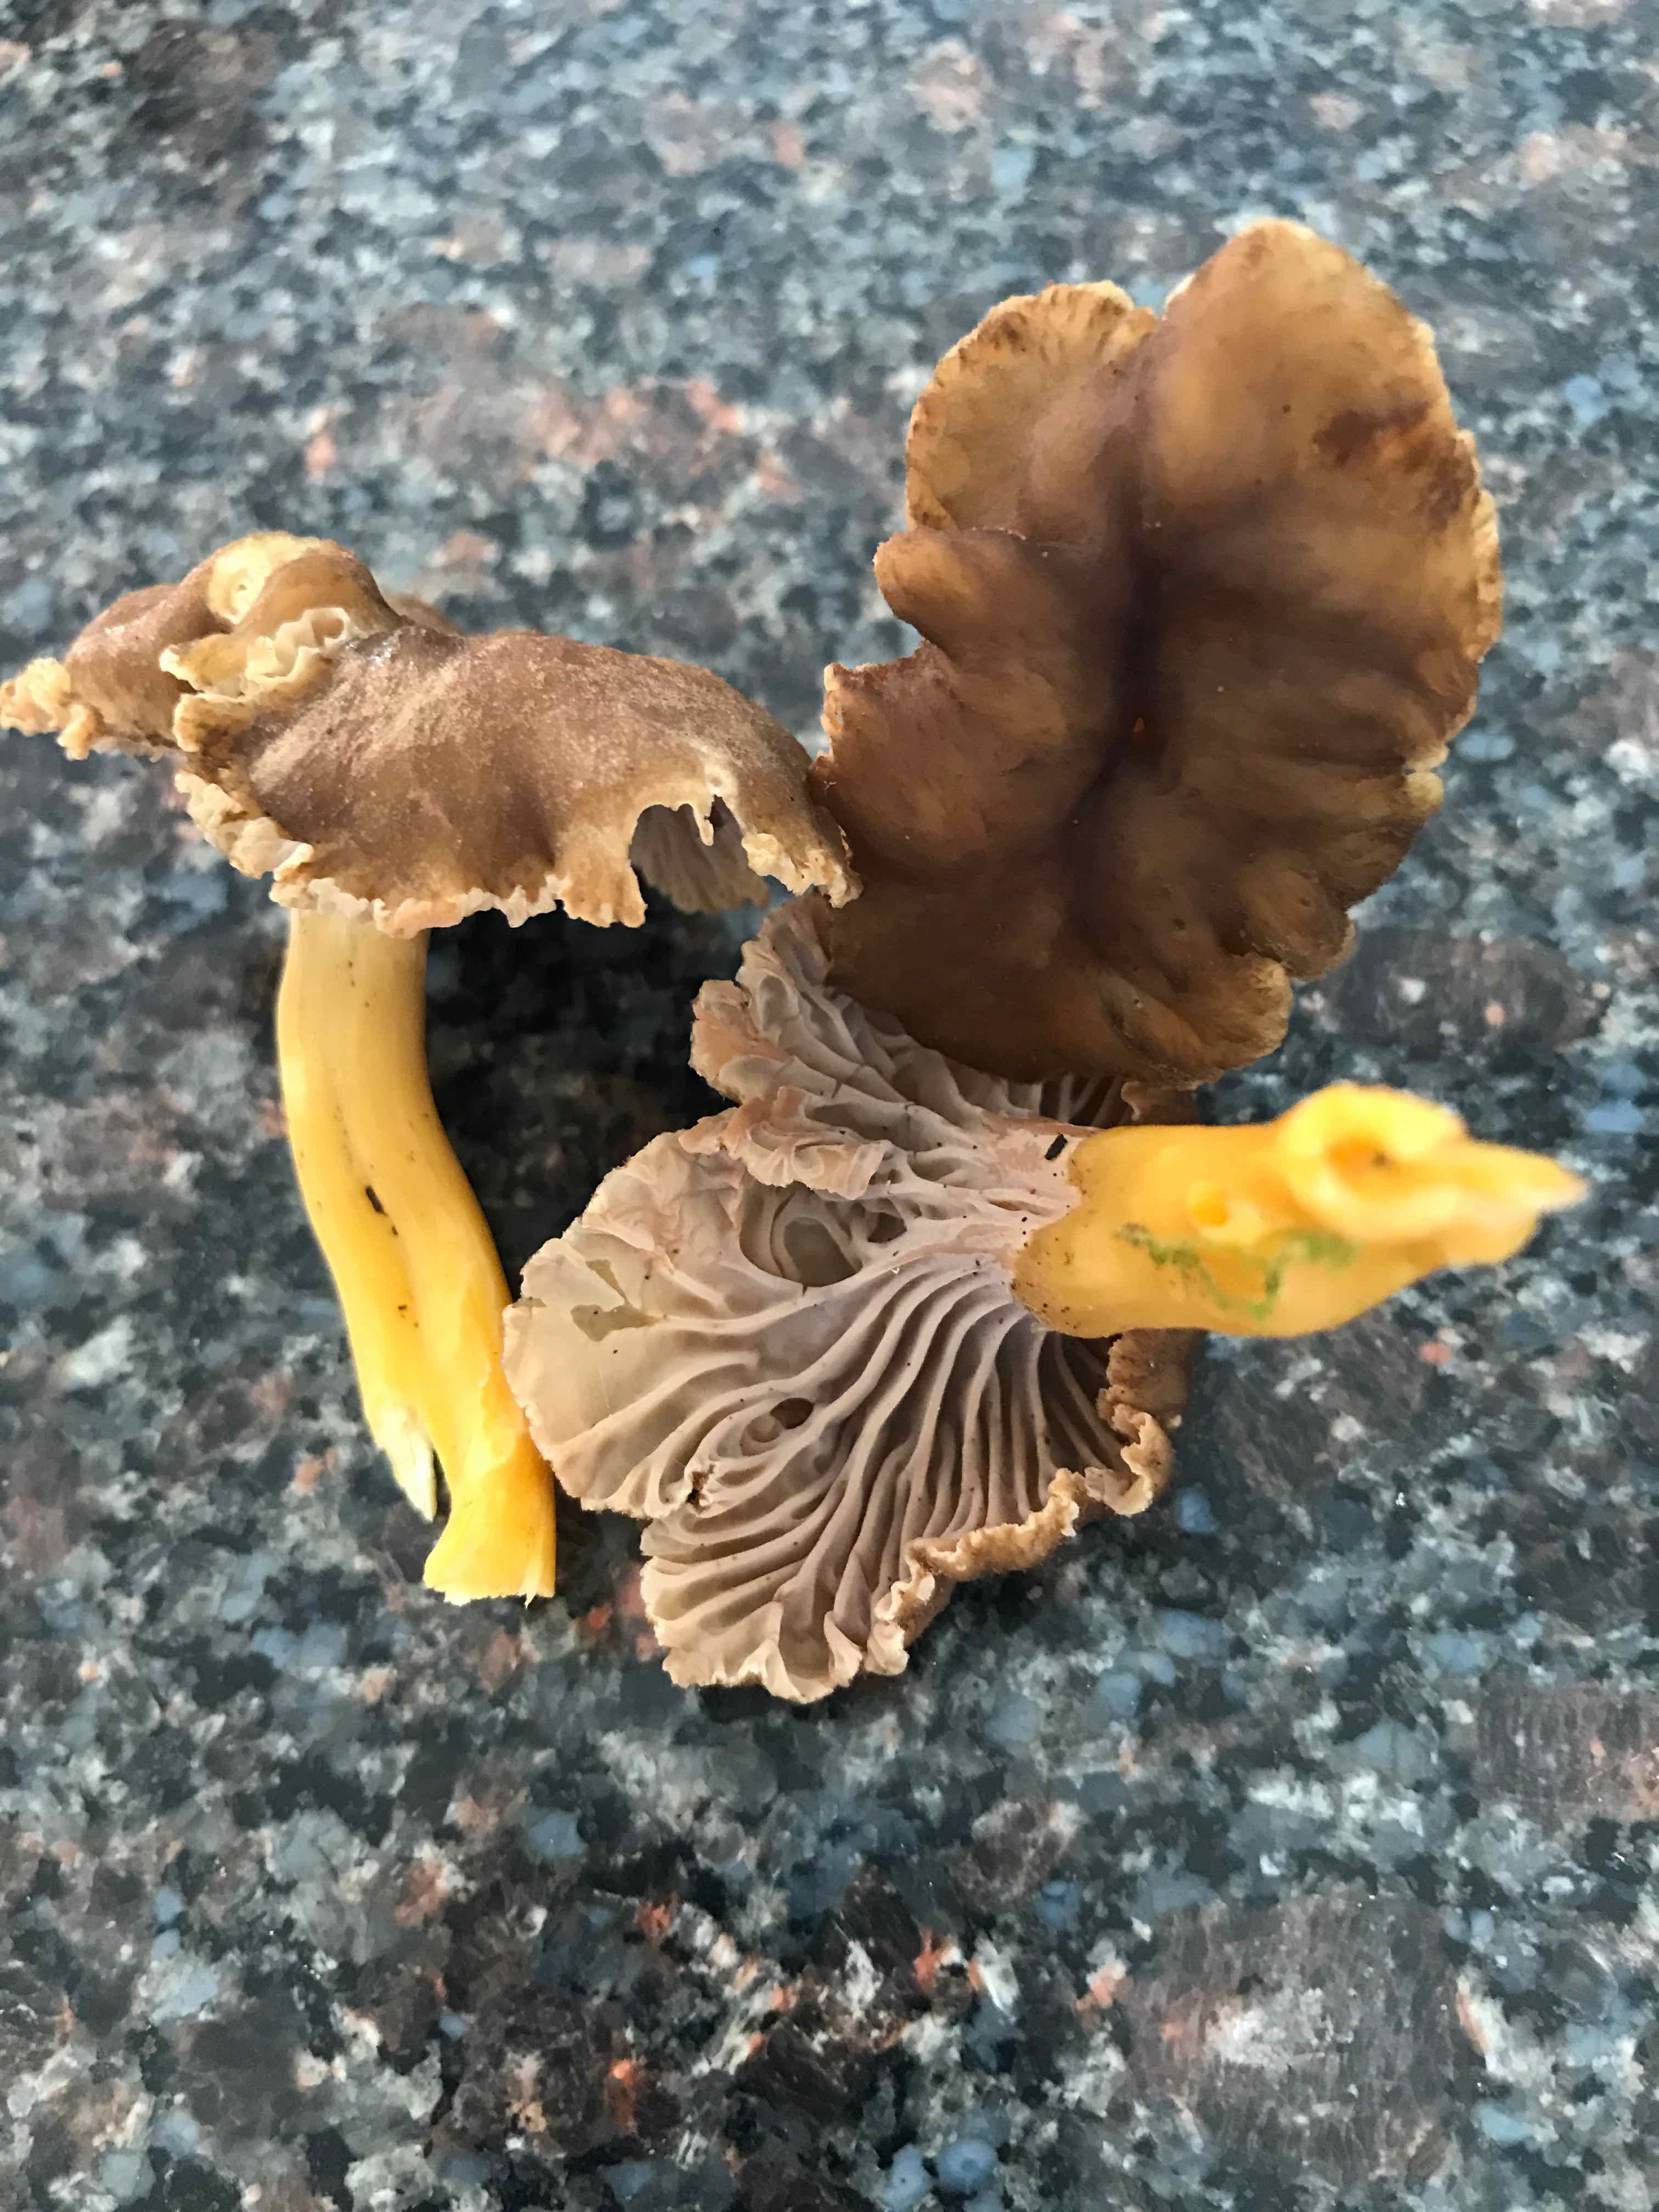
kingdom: Fungi
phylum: Basidiomycota
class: Agaricomycetes
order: Cantharellales
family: Hydnaceae
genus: Craterellus
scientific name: Craterellus tubaeformis
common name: tragt-kantarel
